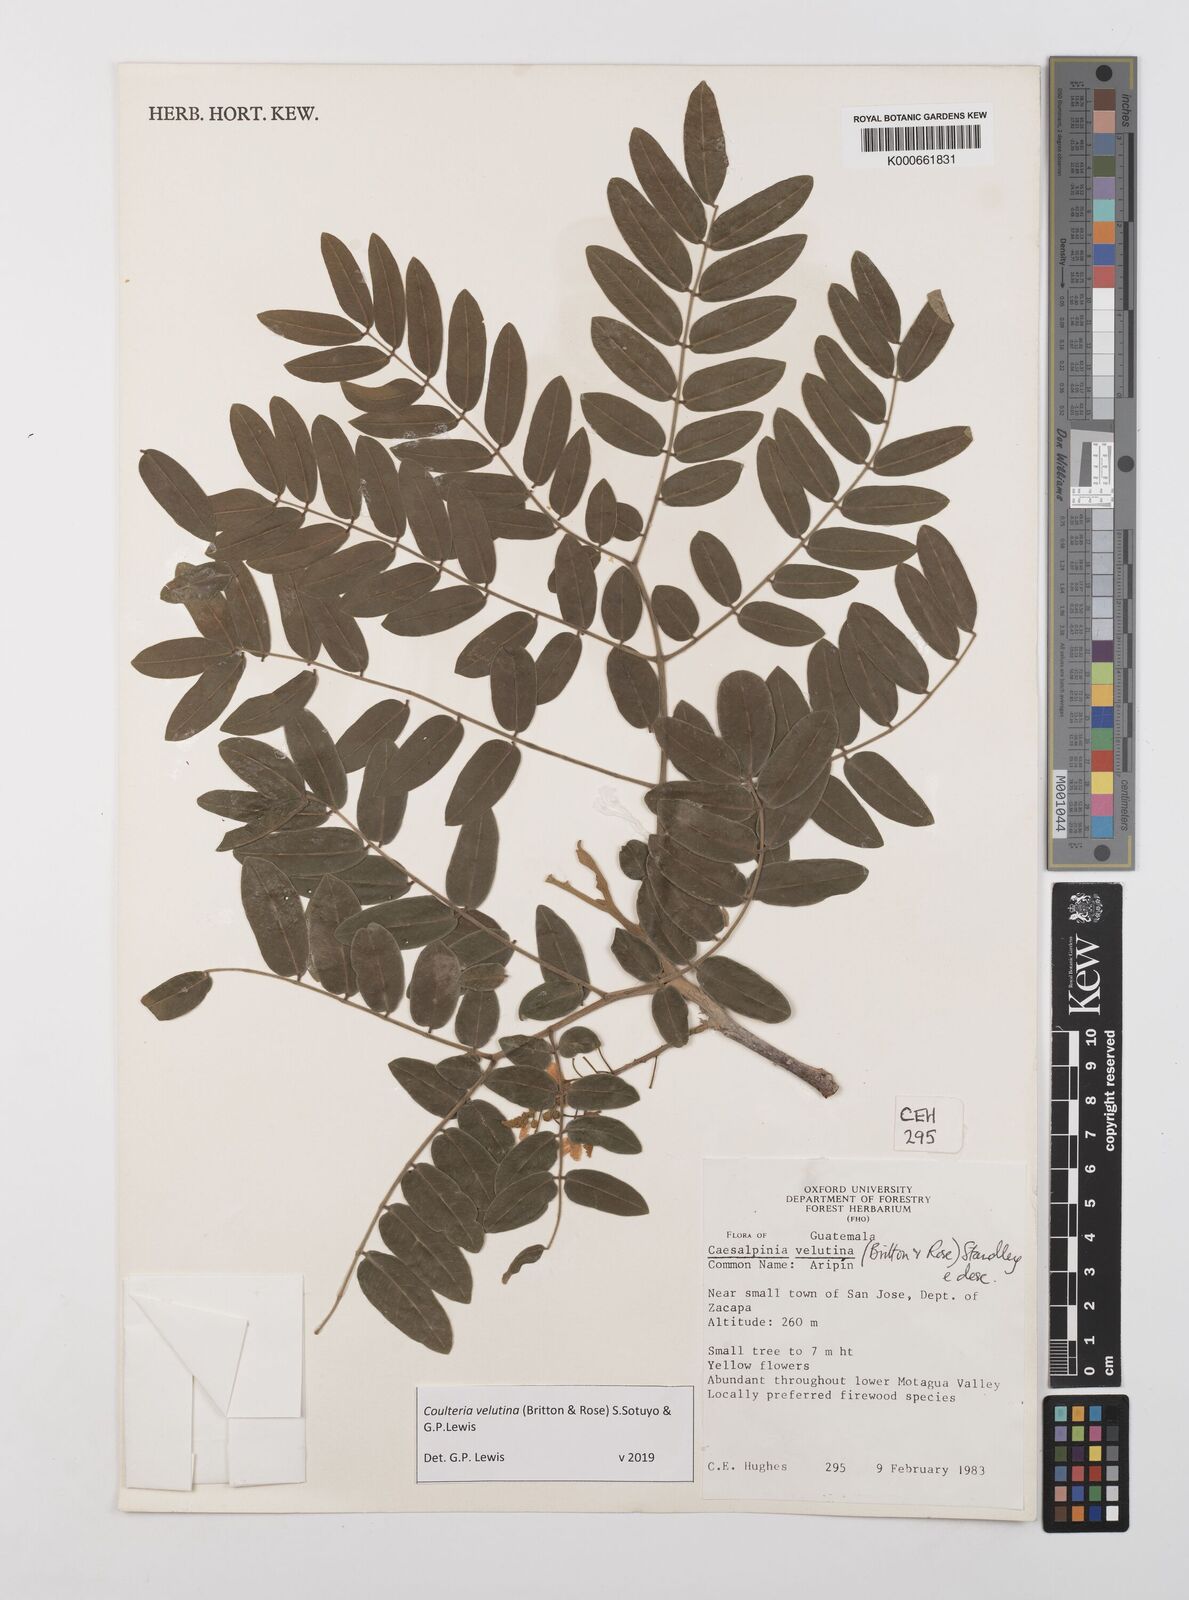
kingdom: Plantae
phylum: Tracheophyta
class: Magnoliopsida
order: Fabales
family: Fabaceae
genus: Coulteria
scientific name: Coulteria velutina
